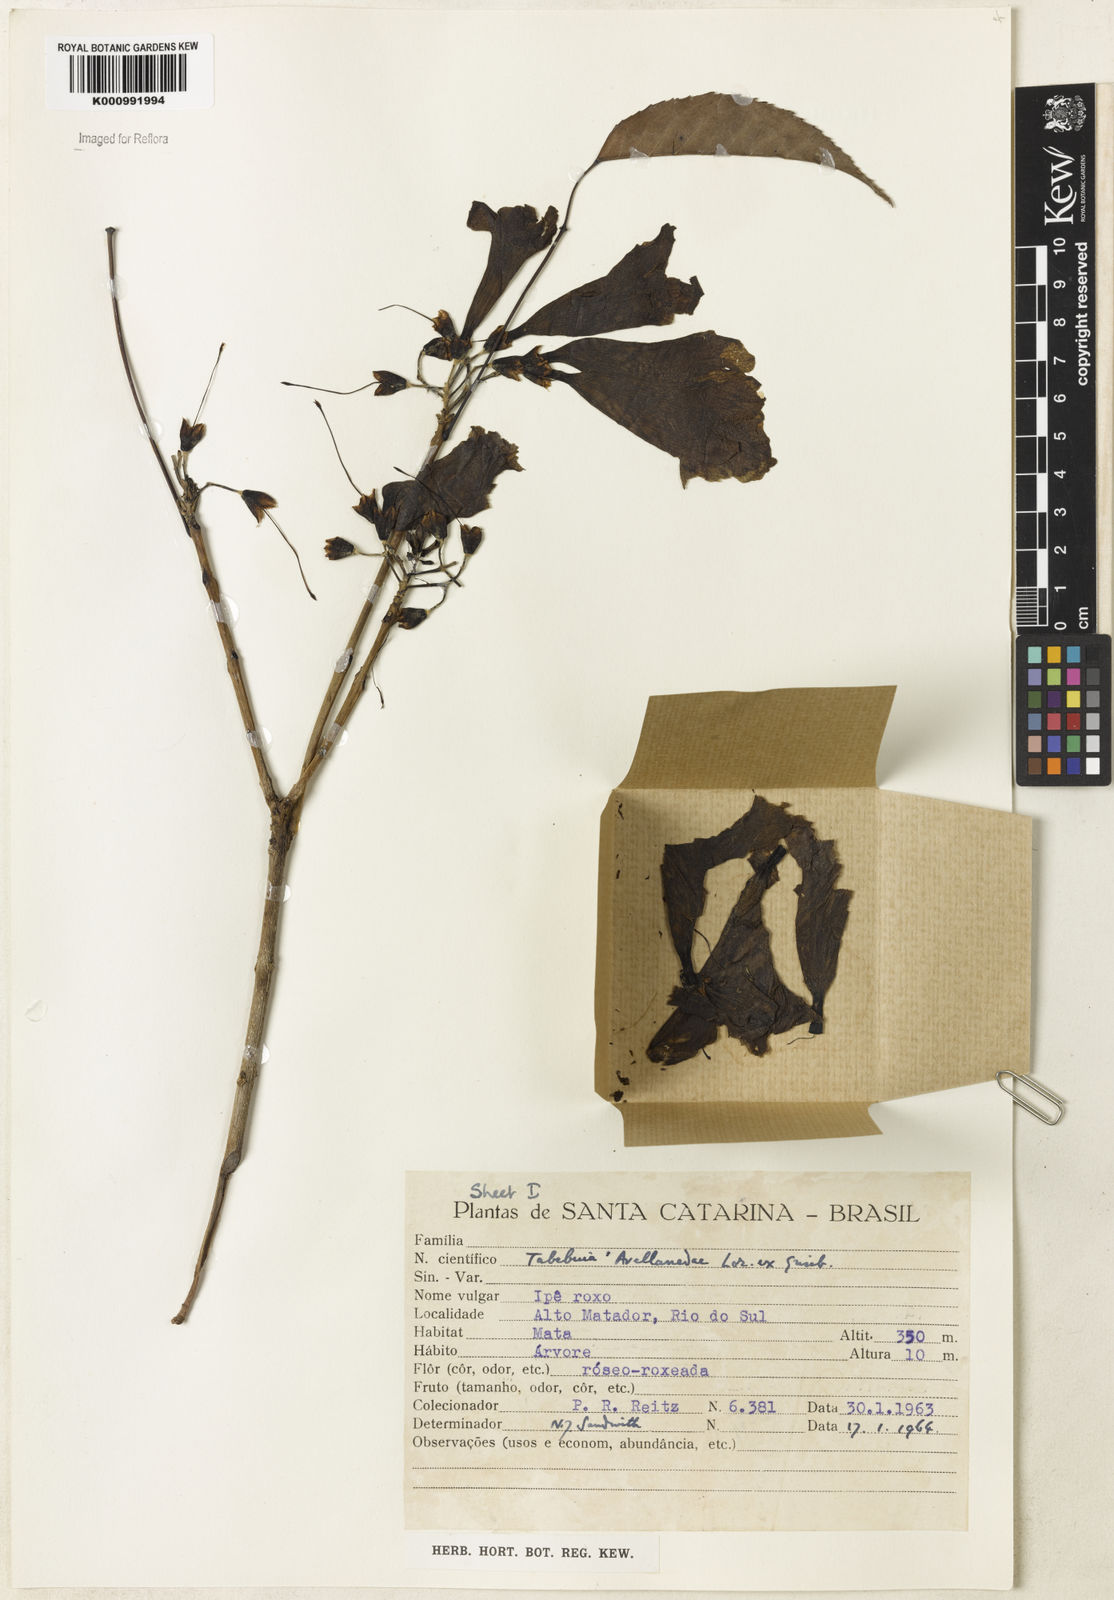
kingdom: Plantae
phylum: Tracheophyta
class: Magnoliopsida
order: Lamiales
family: Bignoniaceae
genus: Handroanthus
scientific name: Handroanthus heptaphyllus
